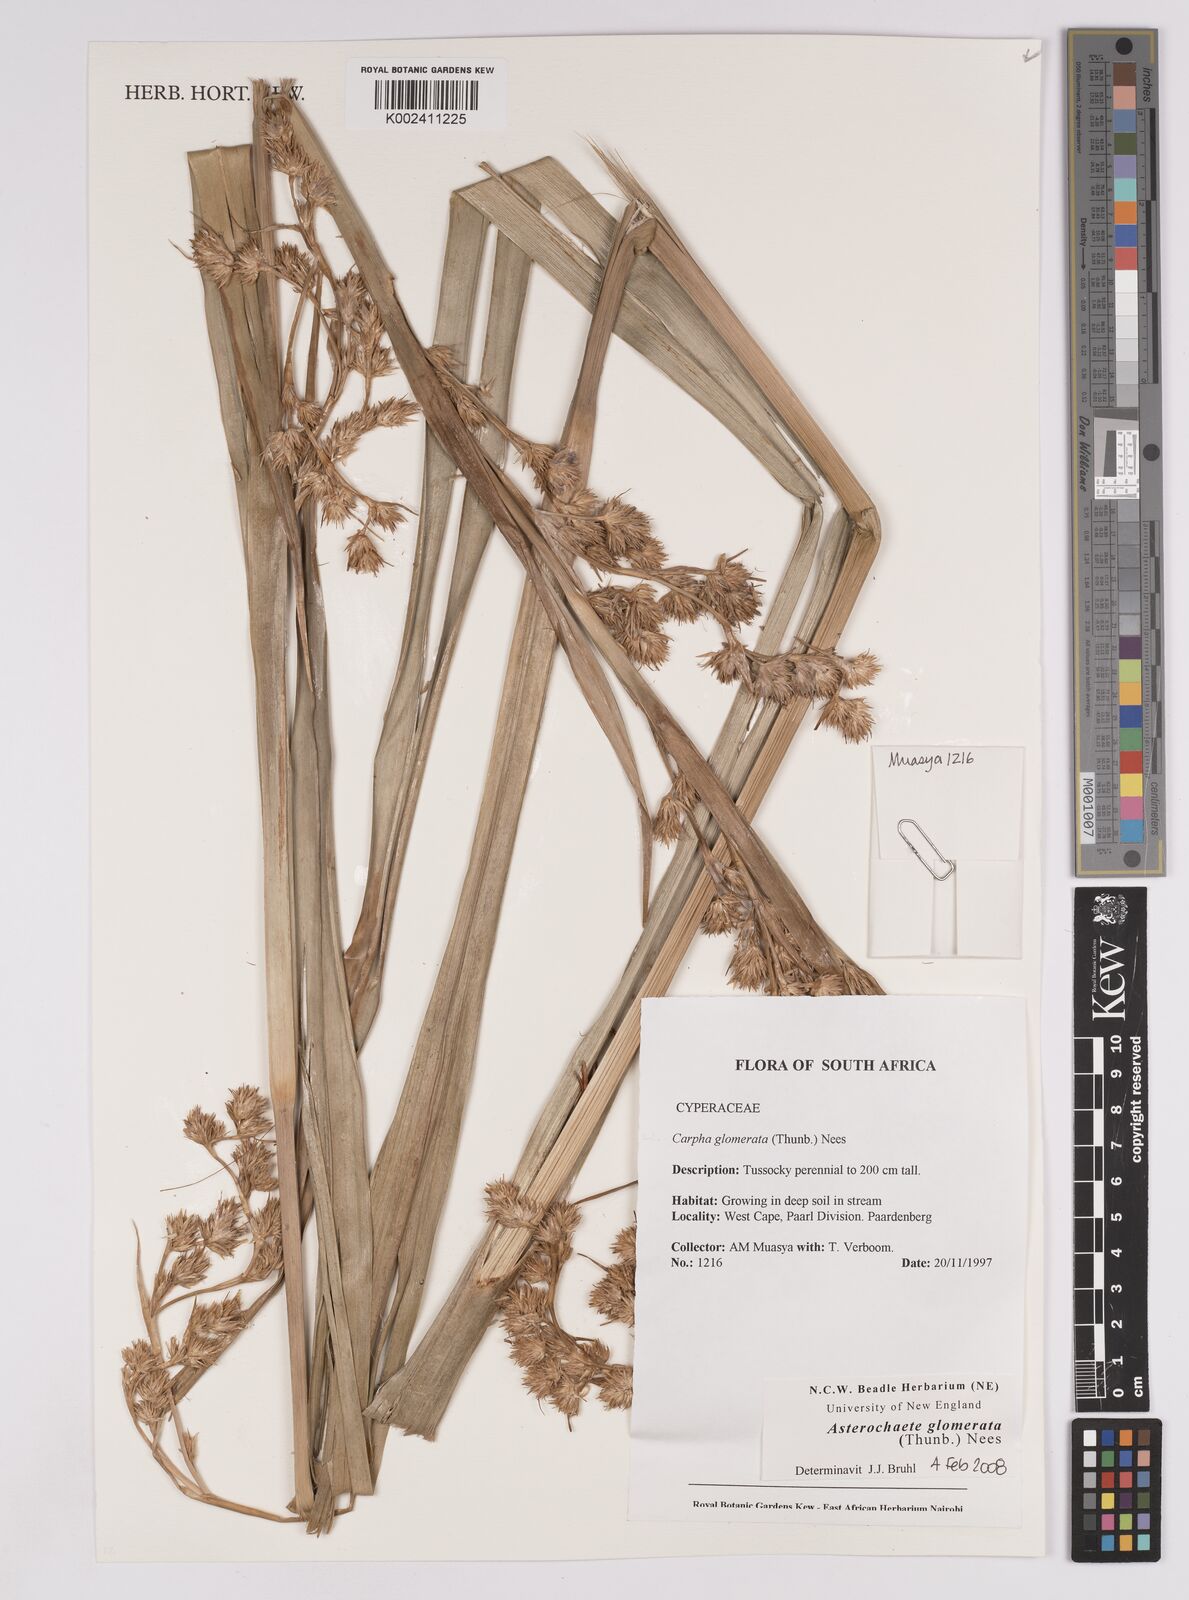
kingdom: Plantae
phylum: Tracheophyta
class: Liliopsida
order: Poales
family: Cyperaceae
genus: Carpha
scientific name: Carpha glomerata
